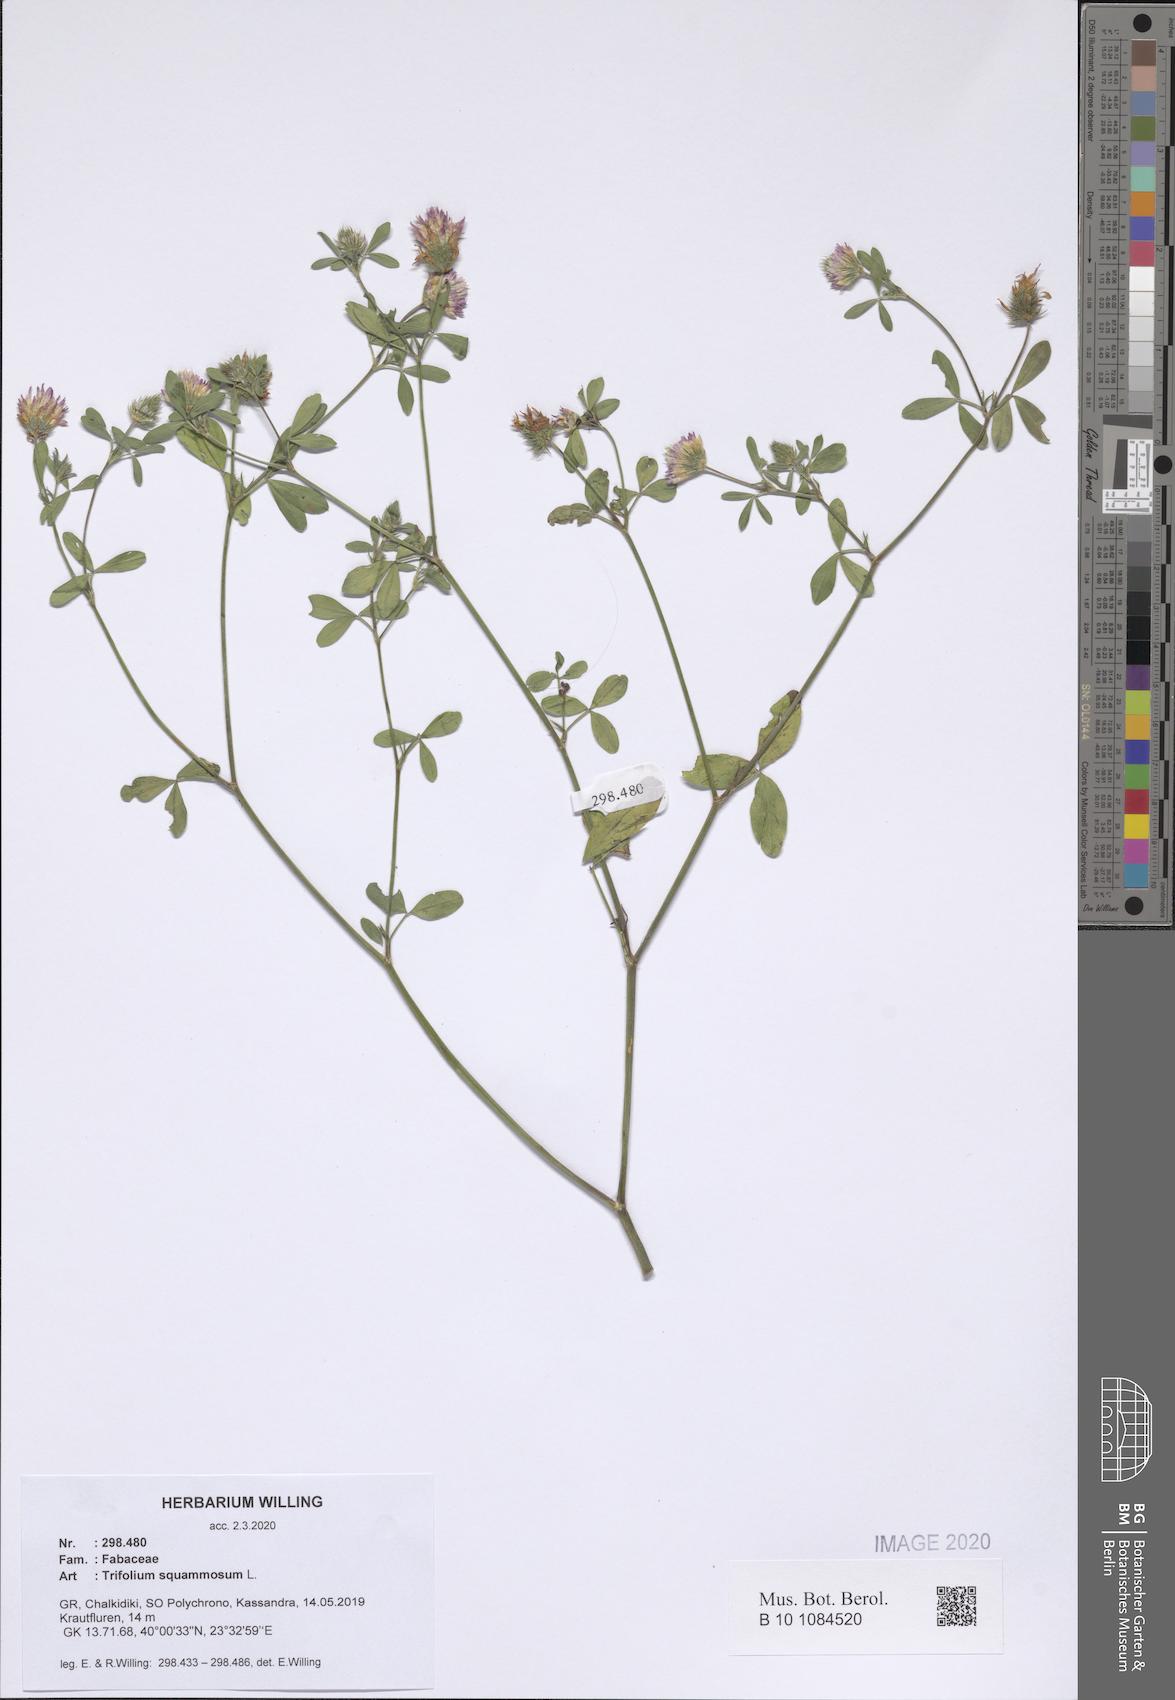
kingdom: Plantae
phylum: Tracheophyta
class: Magnoliopsida
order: Fabales
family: Fabaceae
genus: Trifolium
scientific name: Trifolium squamosum
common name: Sea clover
